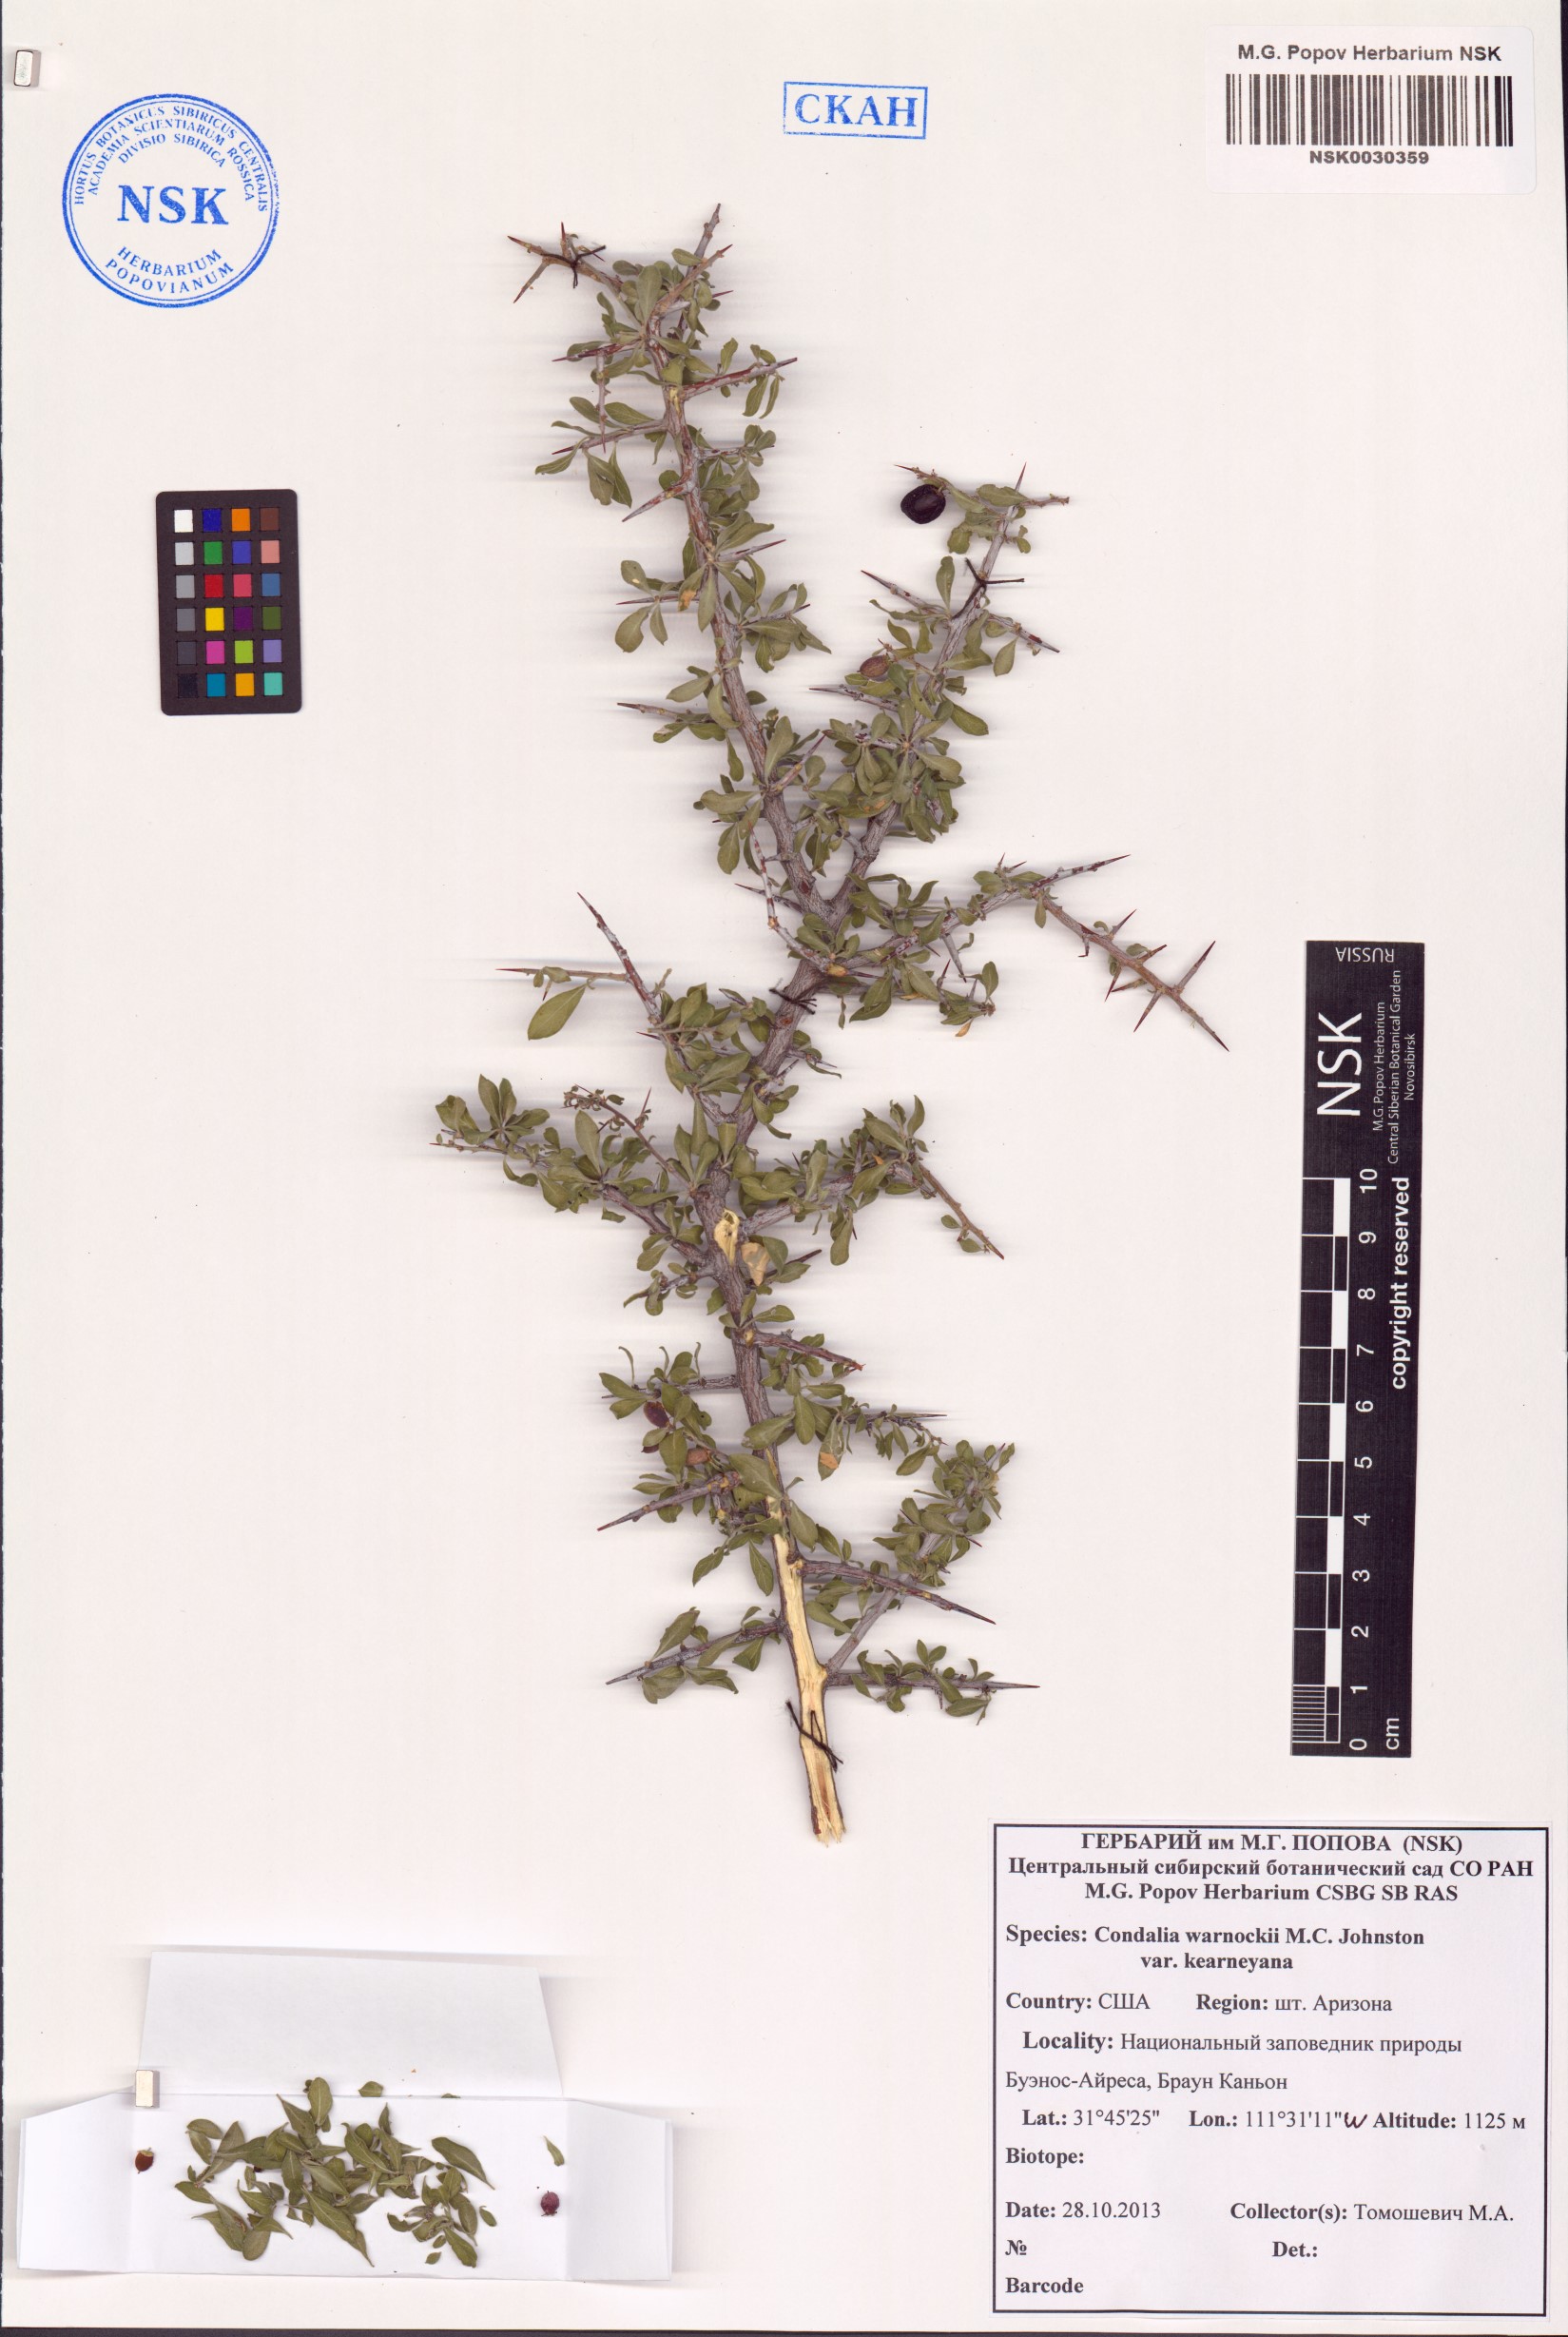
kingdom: Plantae
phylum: Tracheophyta
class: Magnoliopsida
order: Rosales
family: Rhamnaceae
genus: Condalia
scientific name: Condalia warnockii
